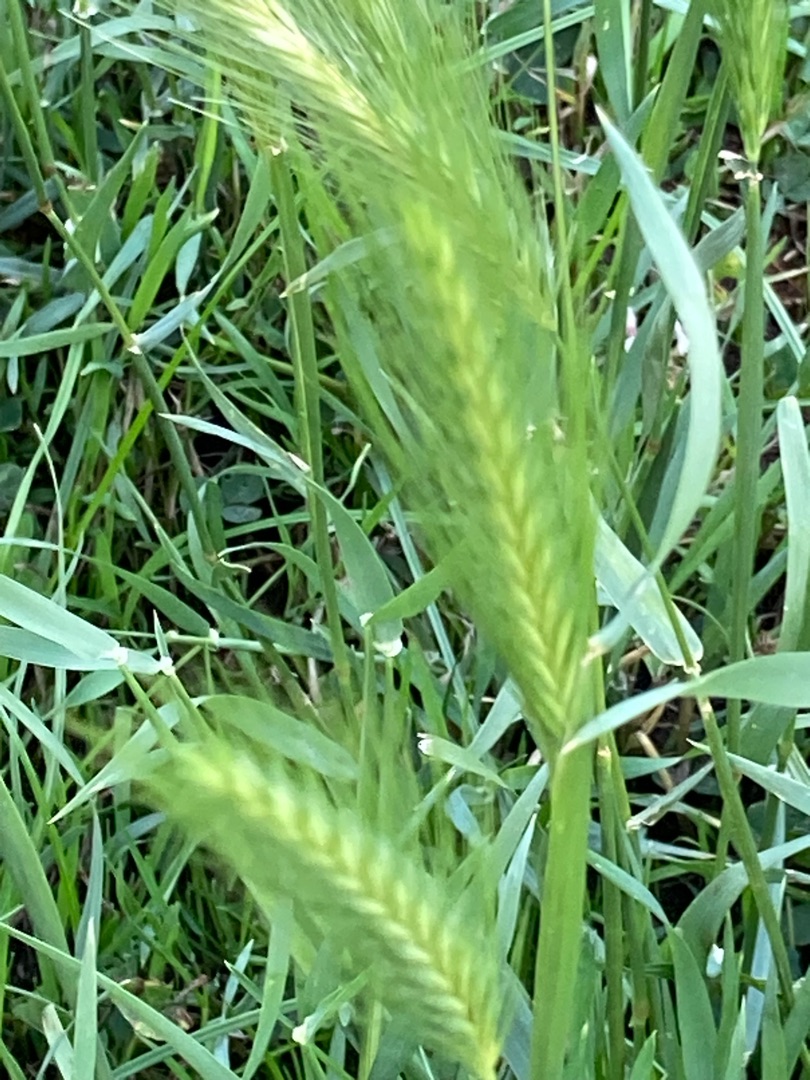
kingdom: Plantae
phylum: Tracheophyta
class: Liliopsida
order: Poales
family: Poaceae
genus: Hordeum
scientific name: Hordeum murinum
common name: Gold byg
